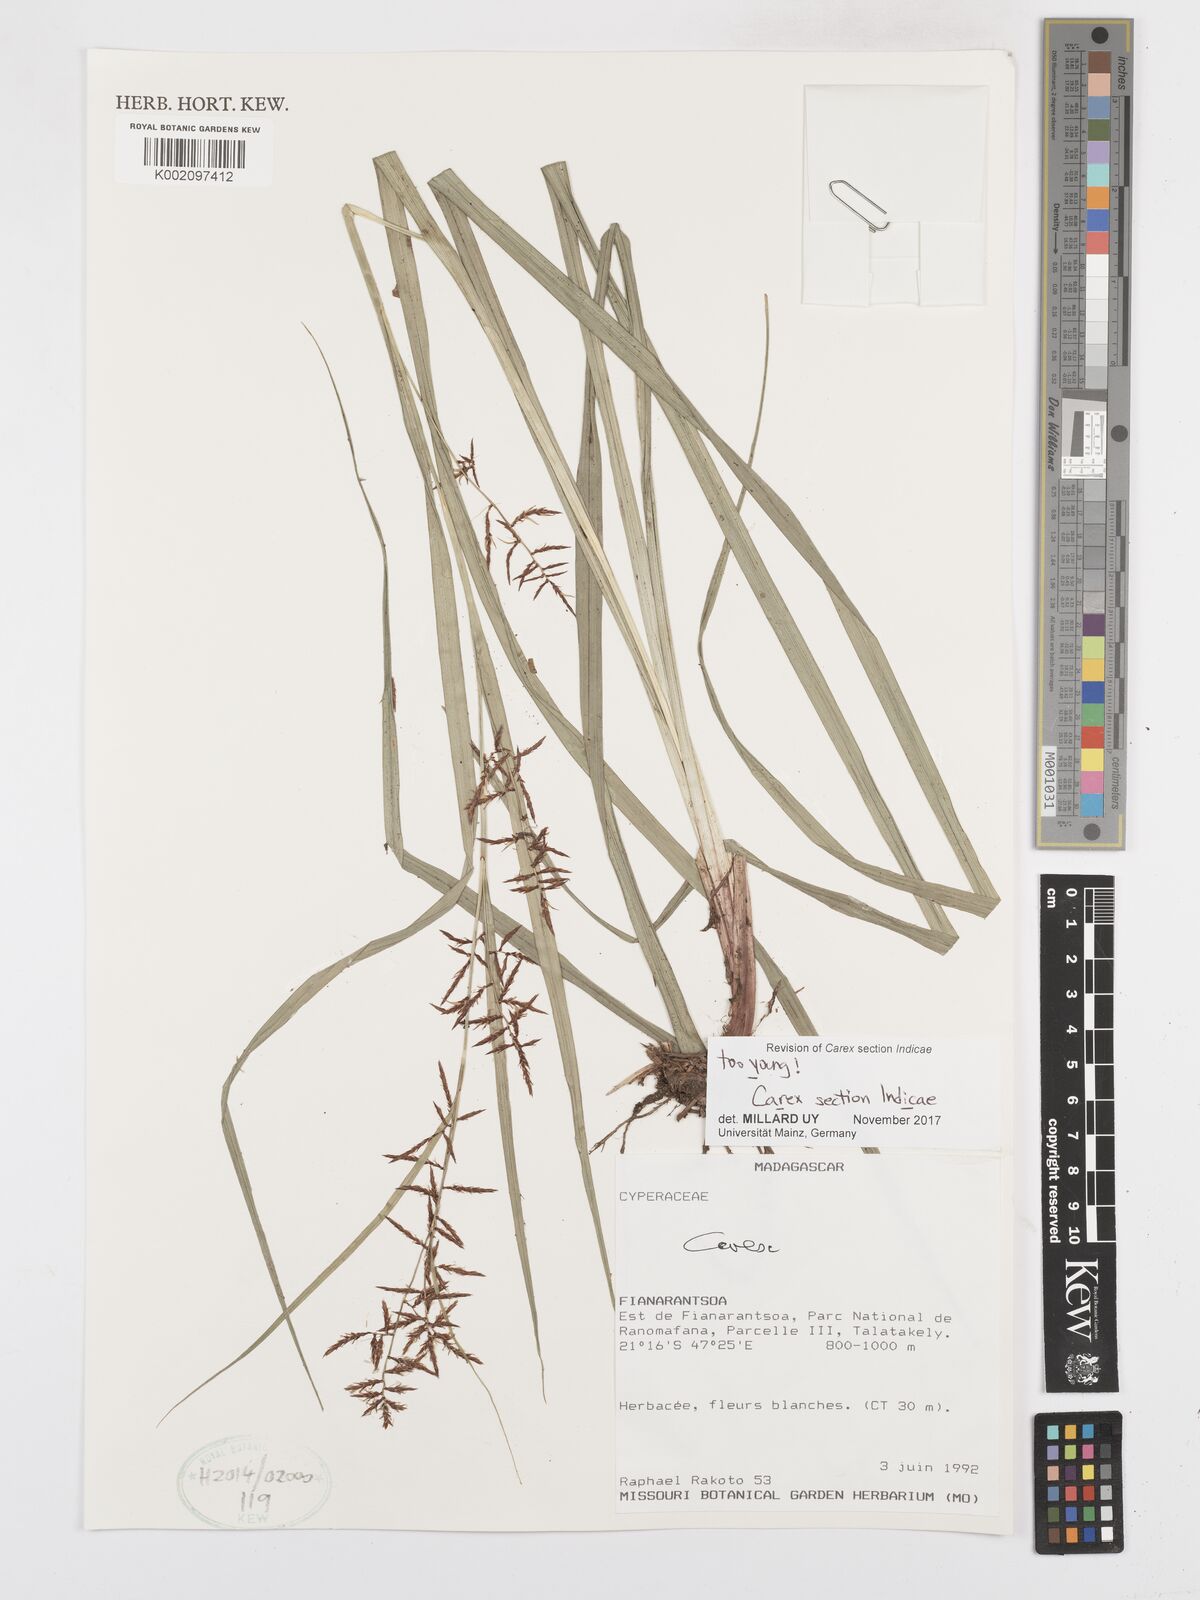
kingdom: Plantae
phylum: Tracheophyta
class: Liliopsida
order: Poales
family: Cyperaceae
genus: Carex
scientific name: Carex
